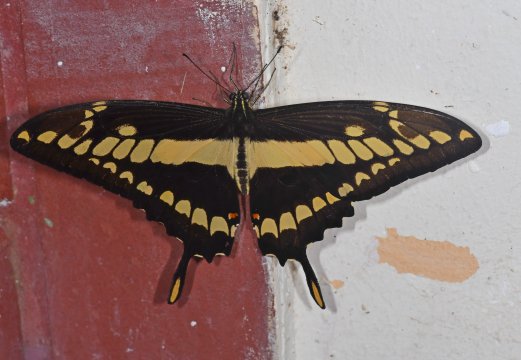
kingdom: Animalia
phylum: Arthropoda
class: Insecta
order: Lepidoptera
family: Papilionidae
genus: Papilio
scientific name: Papilio thoas
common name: Thoas Swallowtail
